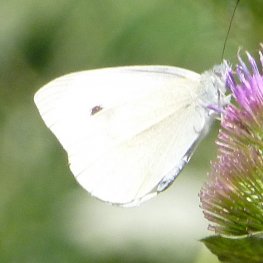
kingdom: Animalia
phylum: Arthropoda
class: Insecta
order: Lepidoptera
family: Pieridae
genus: Pieris
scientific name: Pieris rapae
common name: Cabbage White
